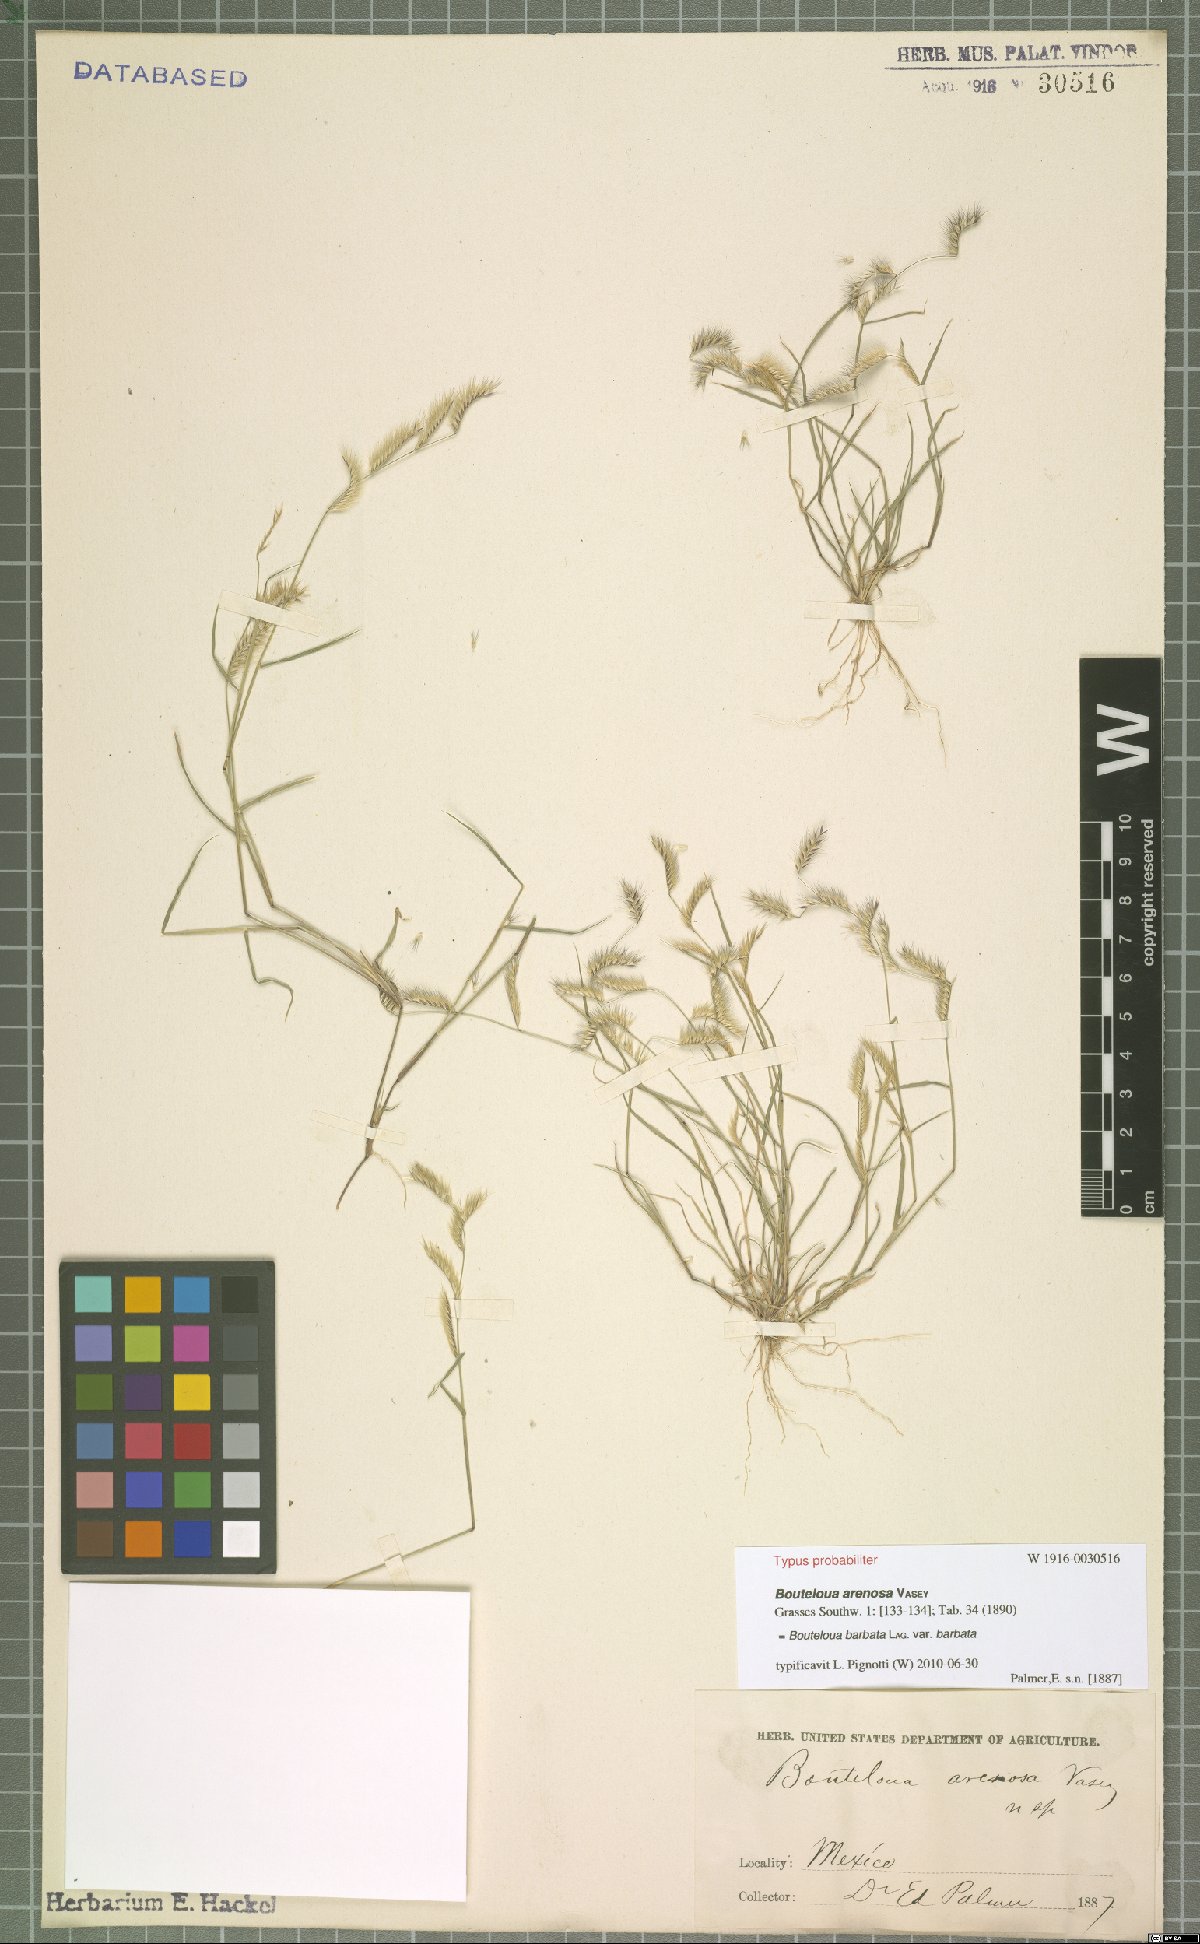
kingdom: Plantae
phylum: Tracheophyta
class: Liliopsida
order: Poales
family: Poaceae
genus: Bouteloua
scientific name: Bouteloua barbata
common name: Six-weeks grama
